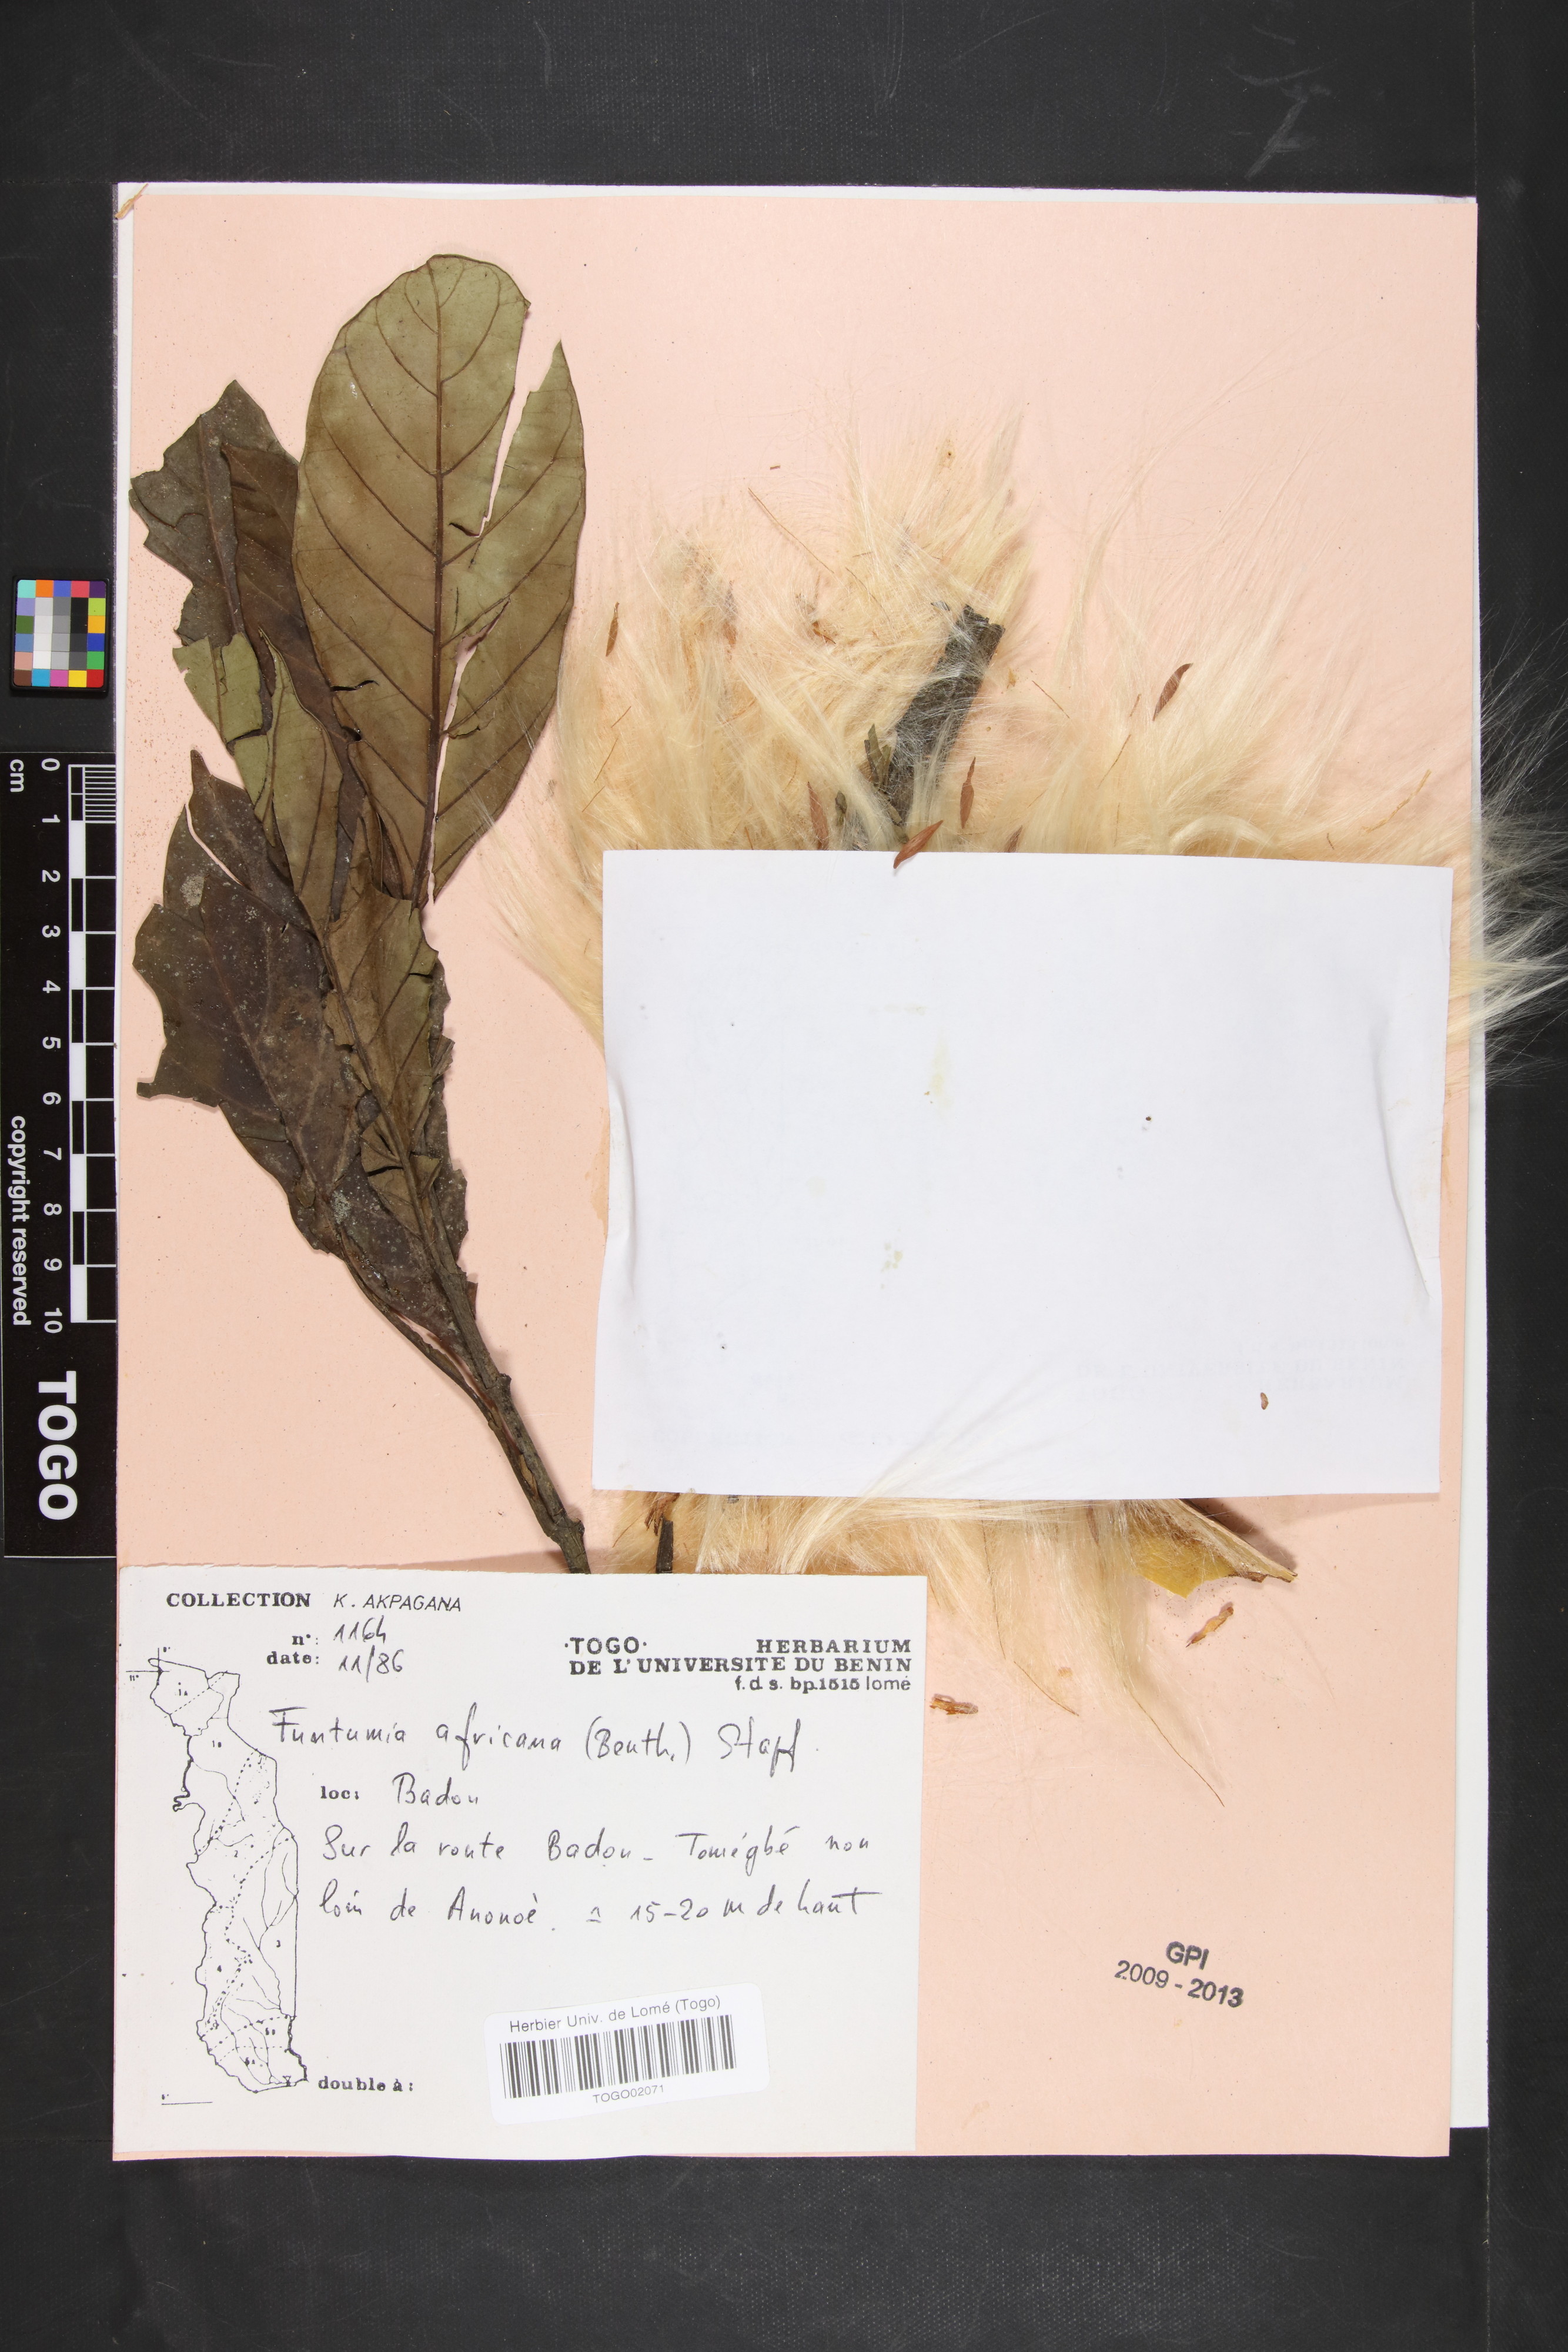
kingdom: Plantae
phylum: Tracheophyta
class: Magnoliopsida
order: Gentianales
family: Apocynaceae
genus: Funtumia
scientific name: Funtumia africana
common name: Lagos-rubber
